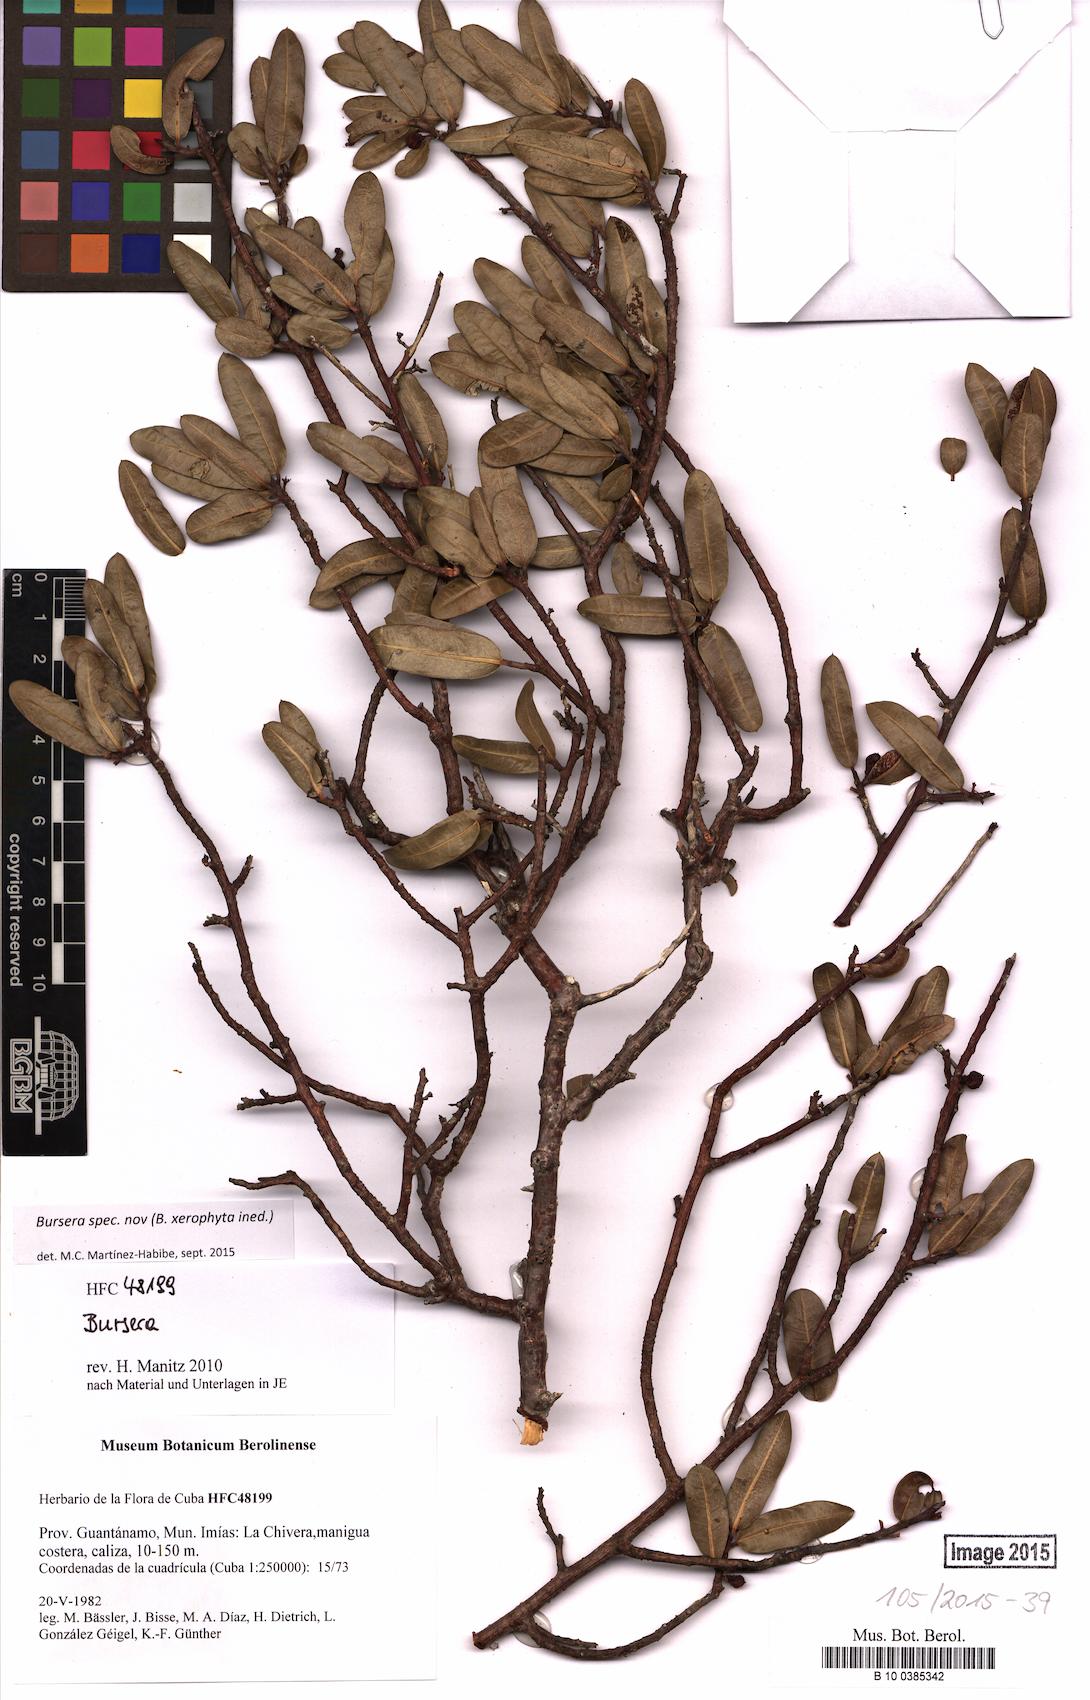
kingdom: Plantae
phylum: Tracheophyta
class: Magnoliopsida
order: Sapindales
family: Burseraceae
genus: Bursera
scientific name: Bursera
